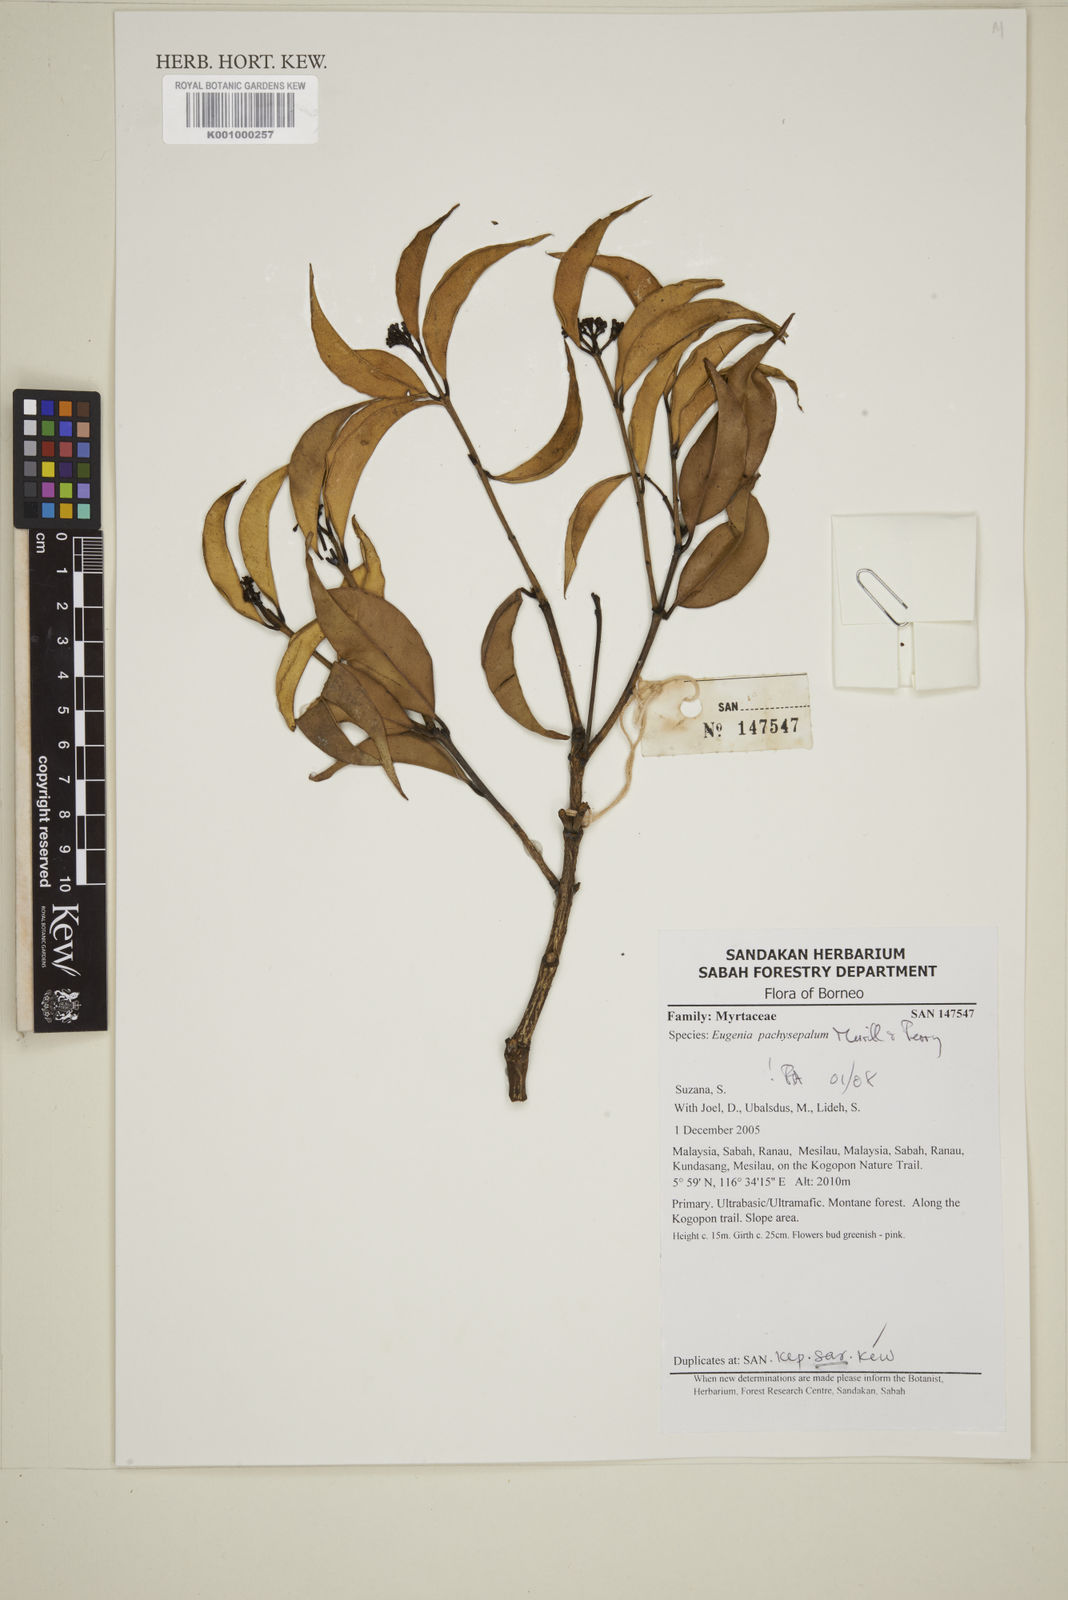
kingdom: Plantae
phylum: Tracheophyta
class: Magnoliopsida
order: Myrtales
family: Myrtaceae
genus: Eugenia
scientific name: Eugenia reinwardtiana
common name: Cedar bay-cherry
